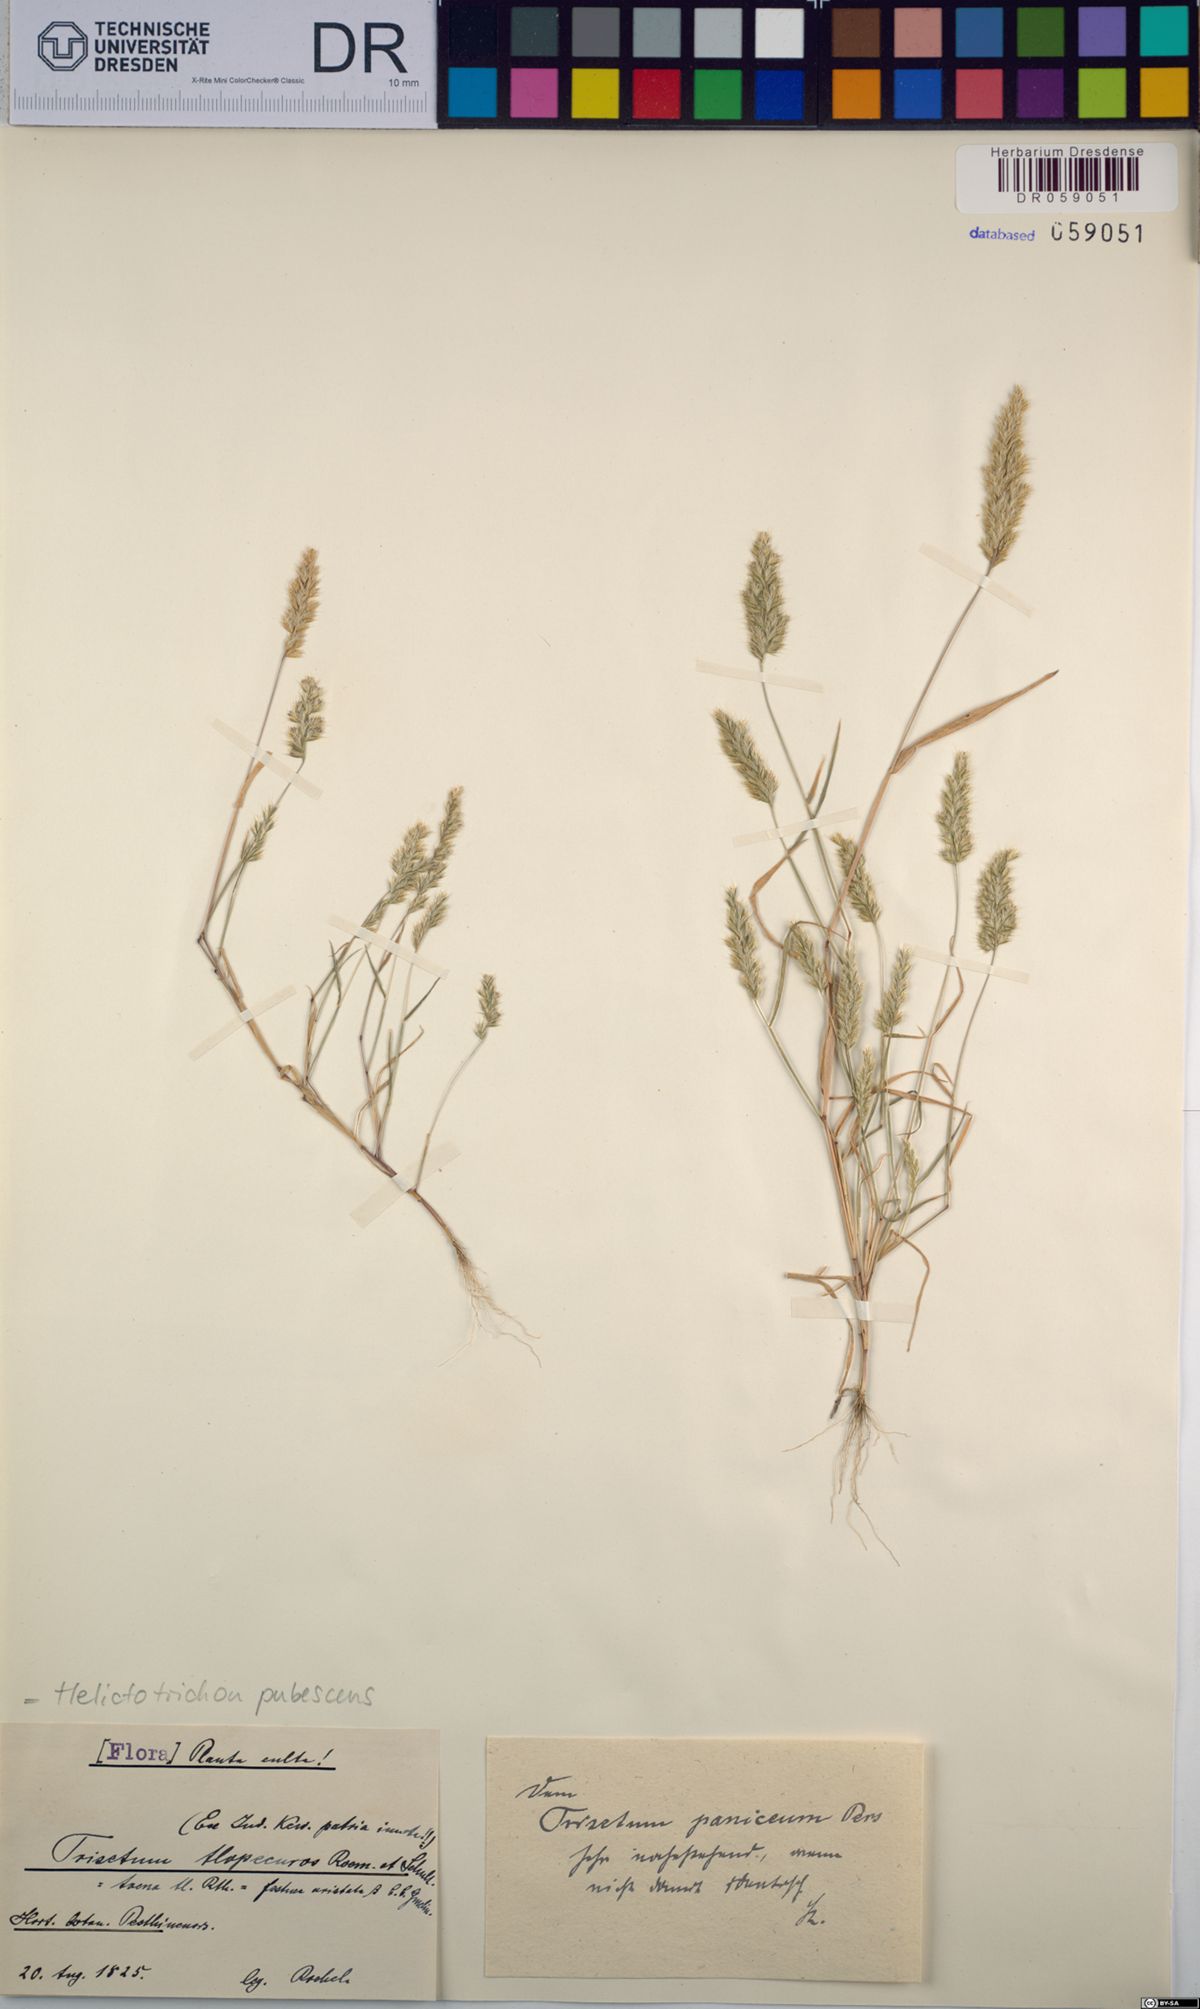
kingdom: Plantae
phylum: Tracheophyta
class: Liliopsida
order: Poales
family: Poaceae
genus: Avenula
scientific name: Avenula pubescens
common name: Downy alpine oatgrass
